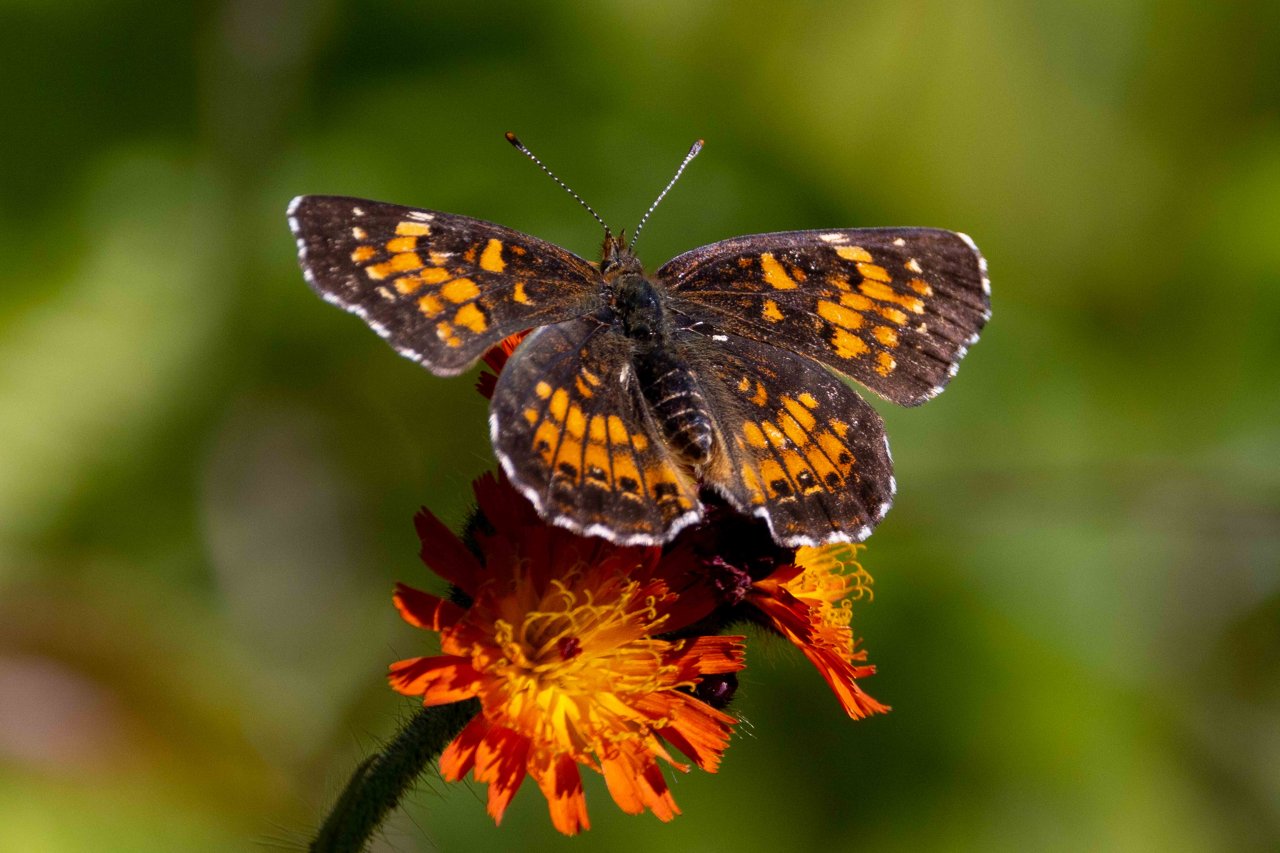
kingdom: Animalia
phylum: Arthropoda
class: Insecta
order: Lepidoptera
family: Nymphalidae
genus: Chlosyne
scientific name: Chlosyne harrisii
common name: Harris's Checkerspot
